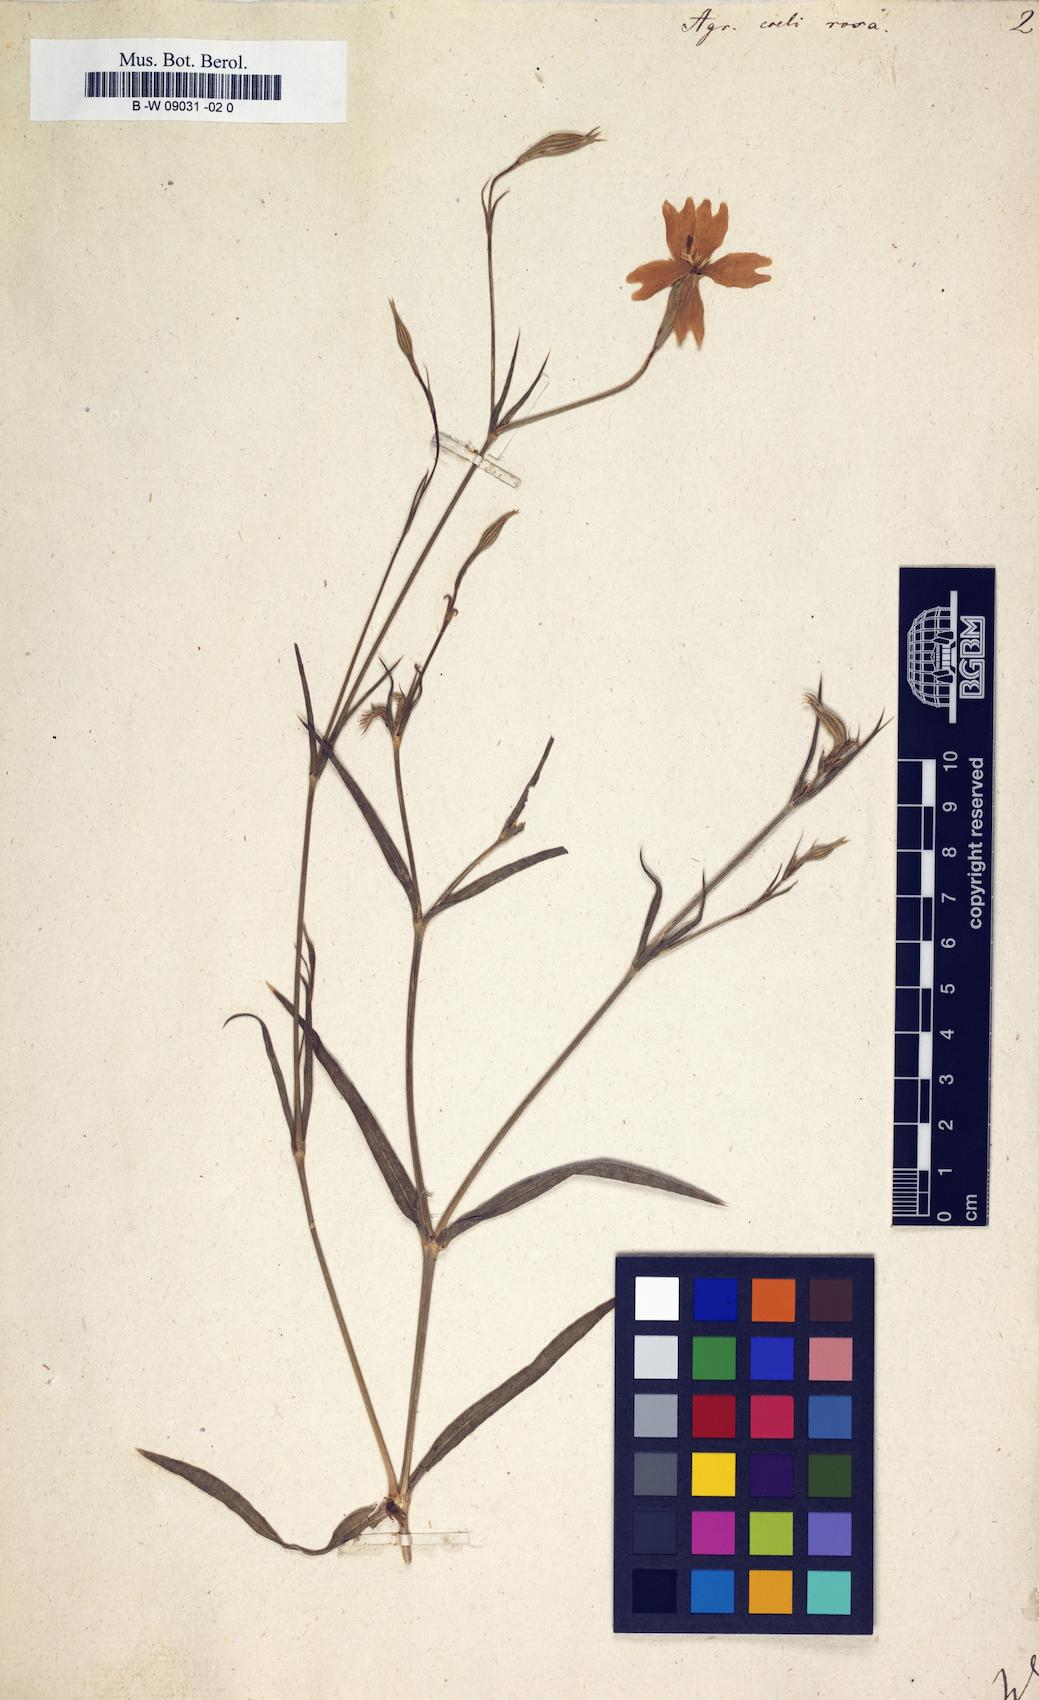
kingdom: Plantae
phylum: Tracheophyta
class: Magnoliopsida
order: Caryophyllales
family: Caryophyllaceae
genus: Eudianthe
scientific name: Eudianthe coeli-rosa
